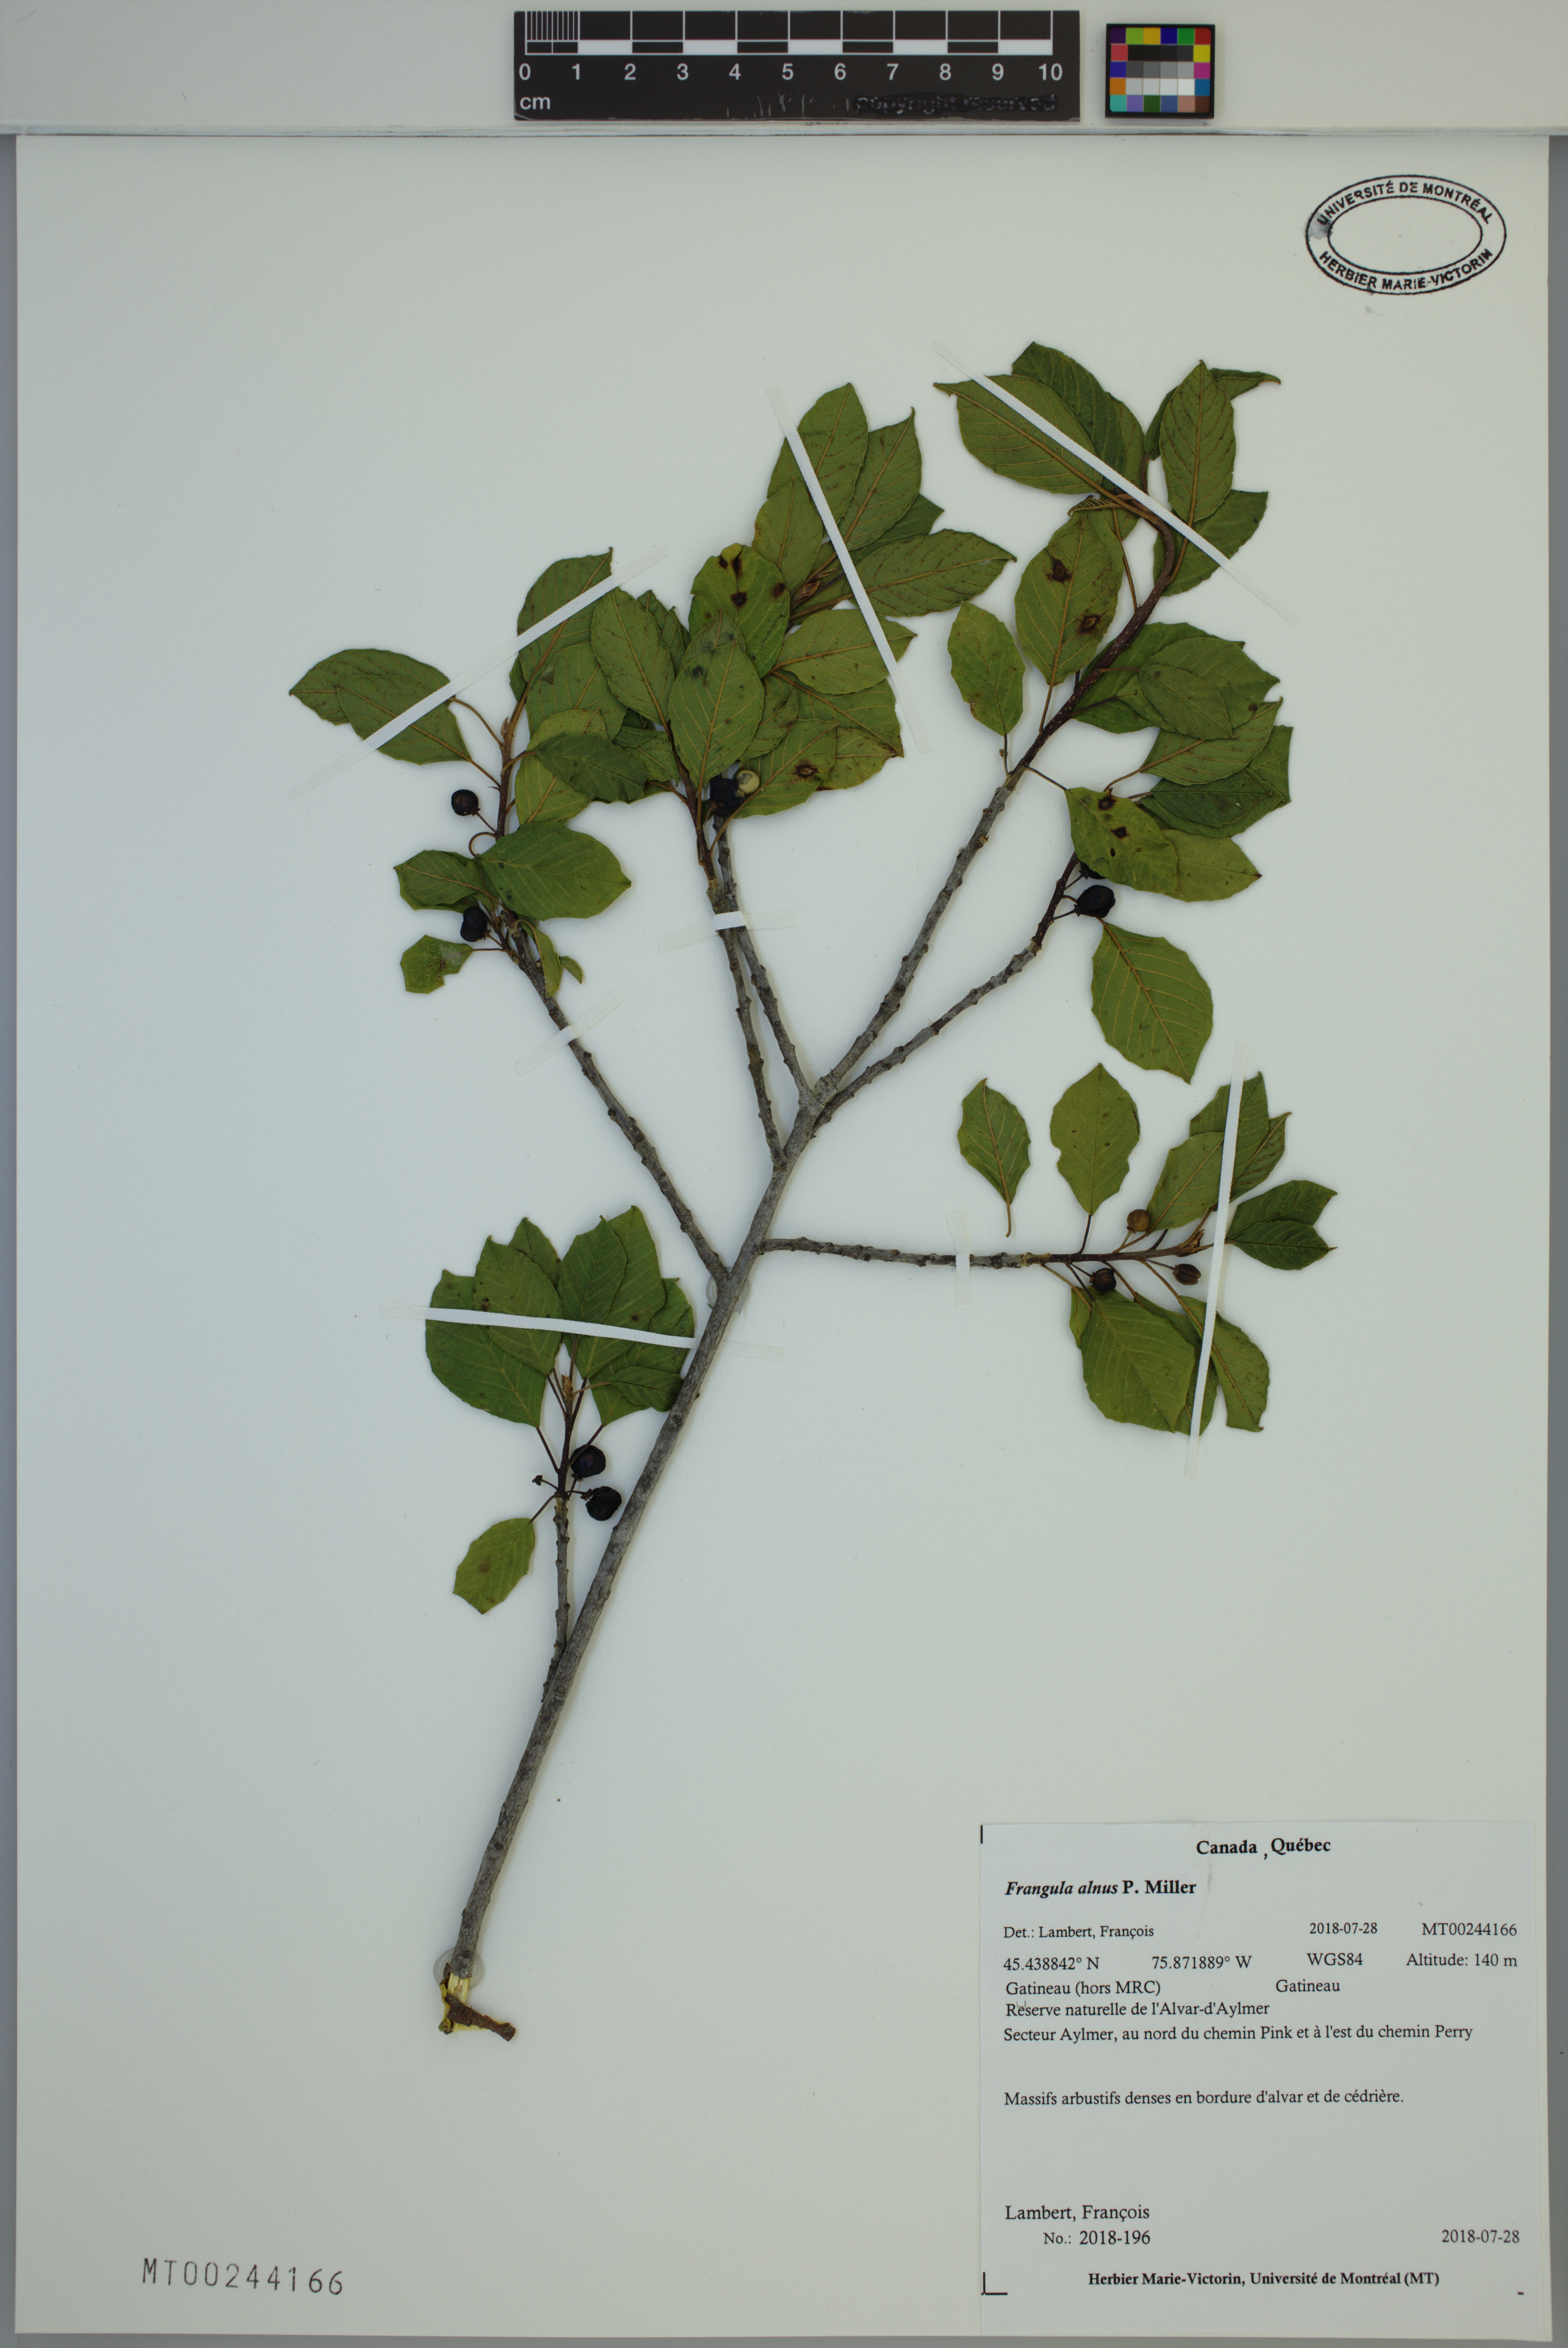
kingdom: Plantae
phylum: Tracheophyta
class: Magnoliopsida
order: Rosales
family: Rhamnaceae
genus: Frangula
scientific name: Frangula alnus
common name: Alder buckthorn
